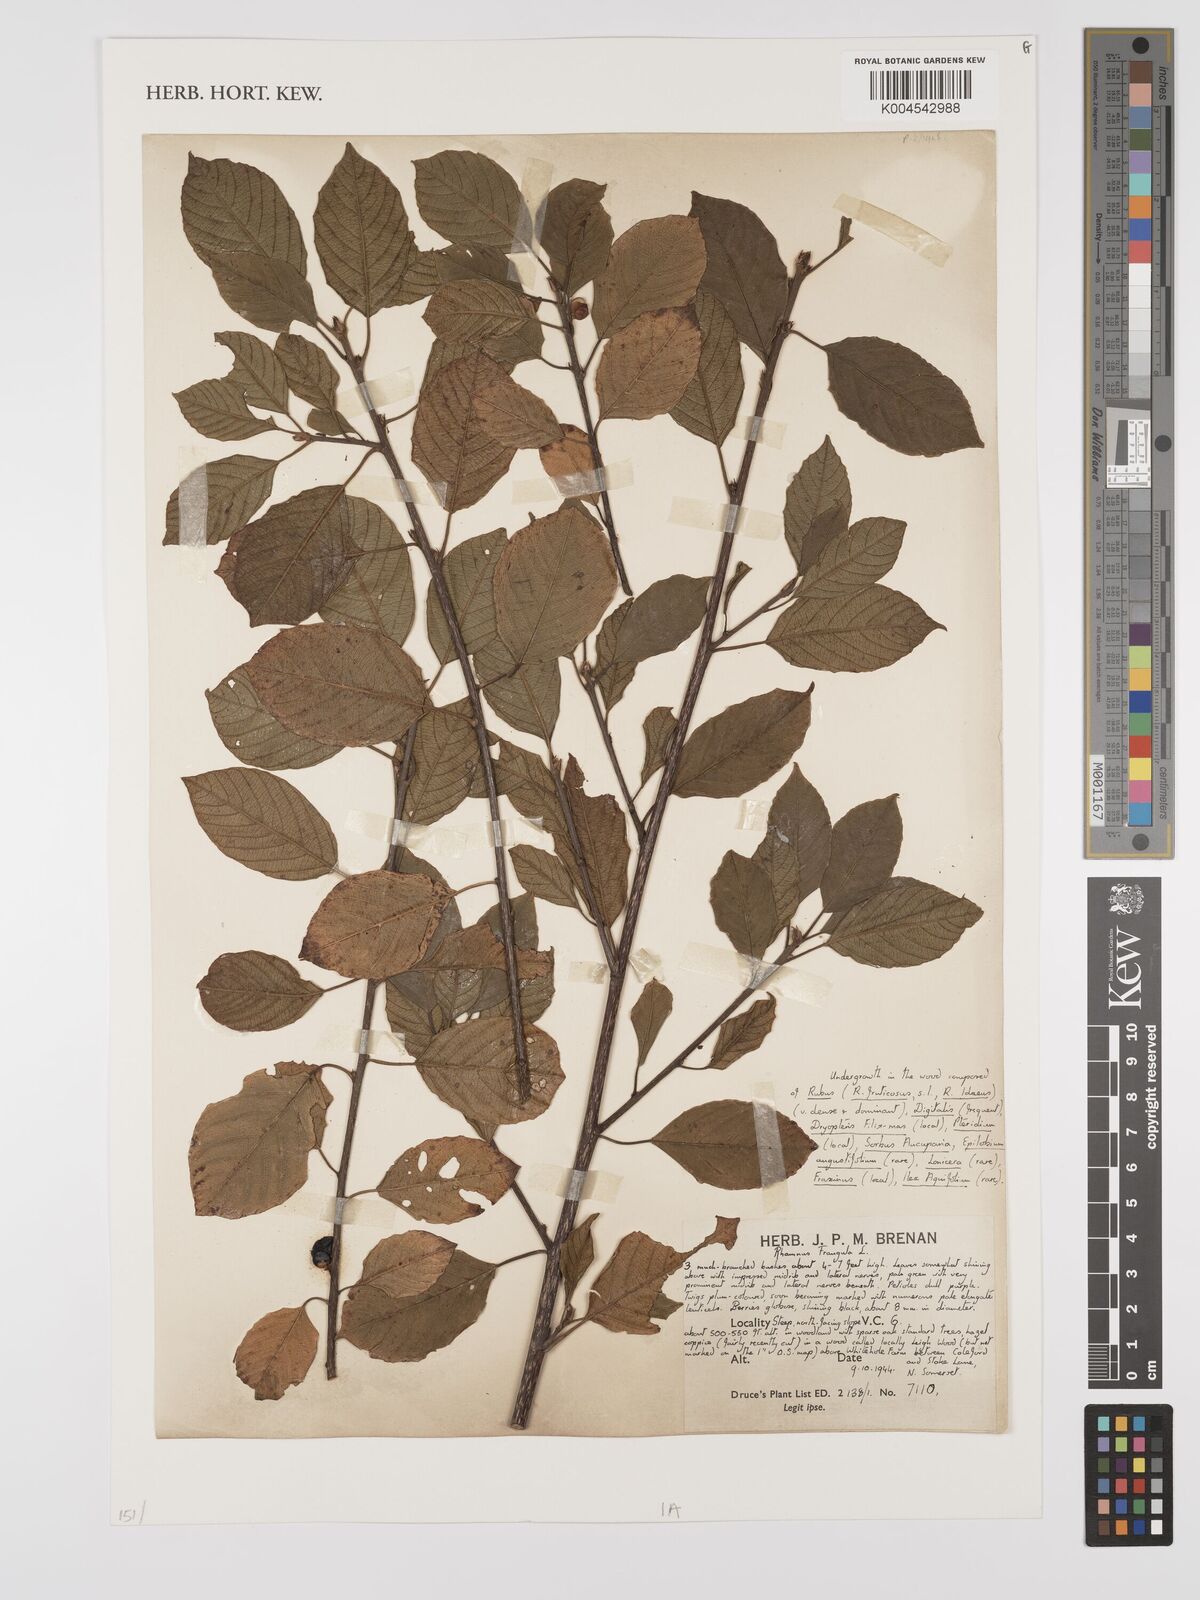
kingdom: Plantae
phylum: Tracheophyta
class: Magnoliopsida
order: Rosales
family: Rhamnaceae
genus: Frangula
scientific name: Frangula alnus
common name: Alder buckthorn
